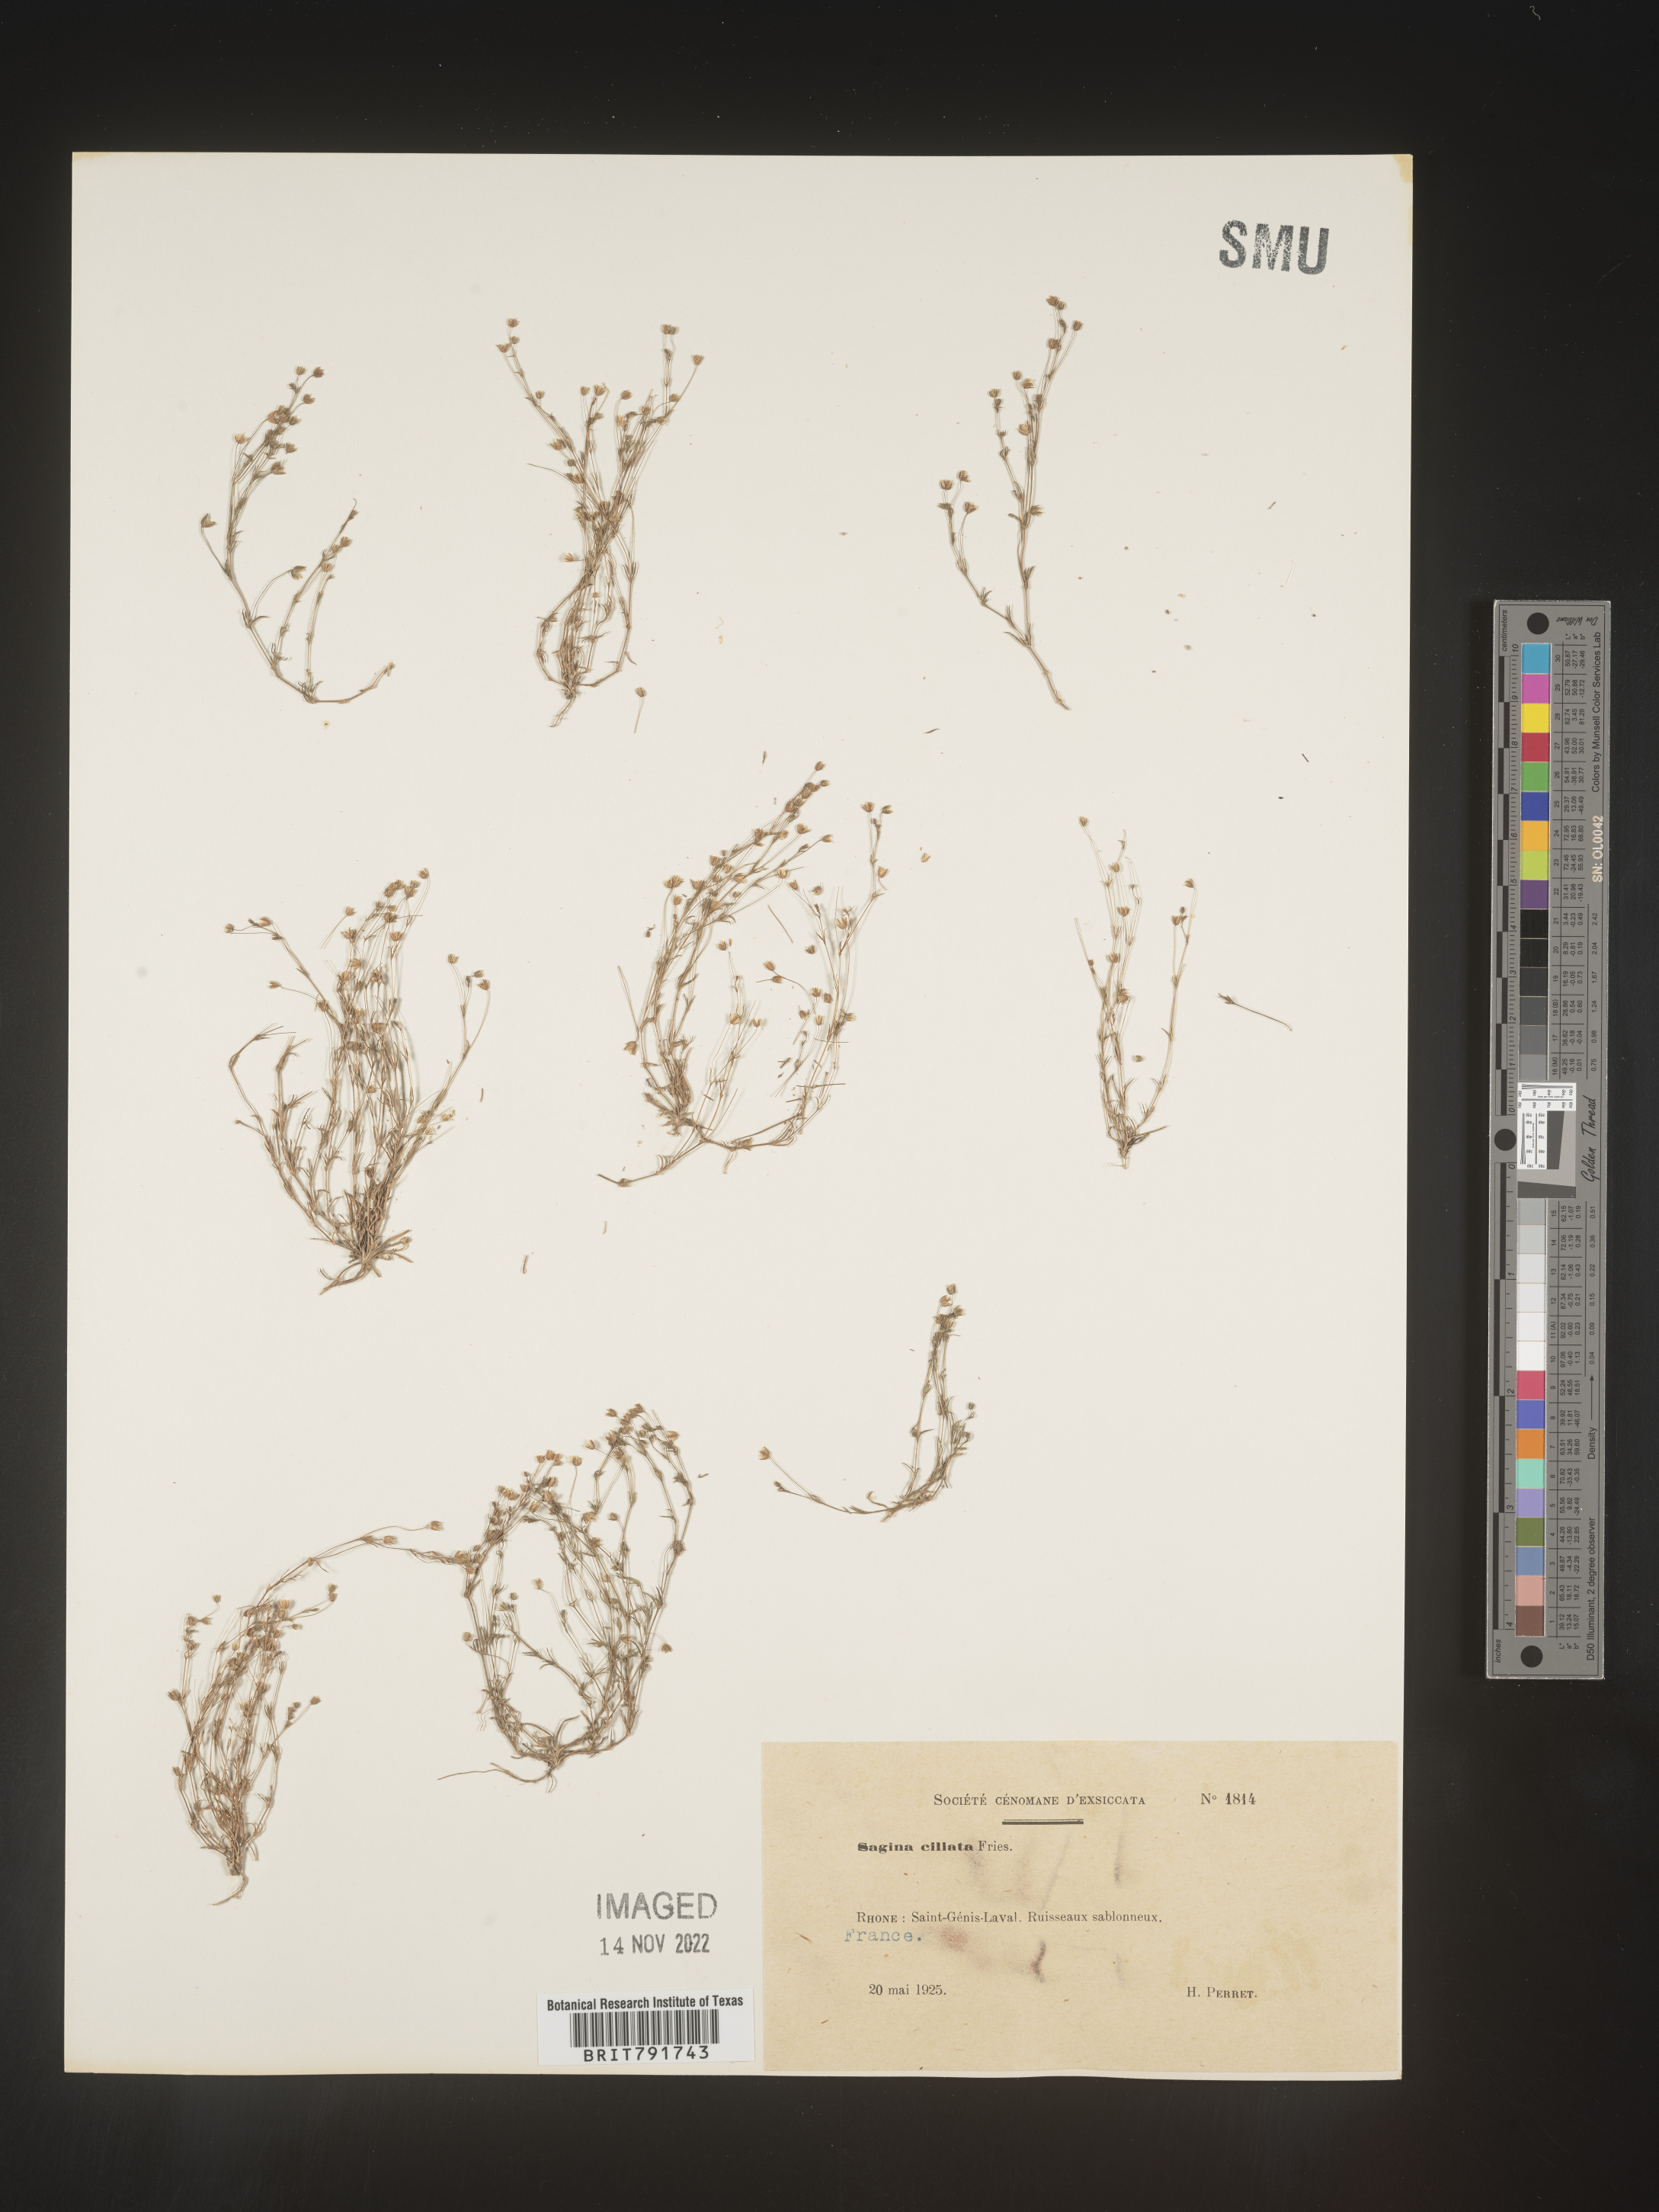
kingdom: Plantae
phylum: Tracheophyta
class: Magnoliopsida
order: Caryophyllales
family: Caryophyllaceae
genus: Sagina
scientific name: Sagina
